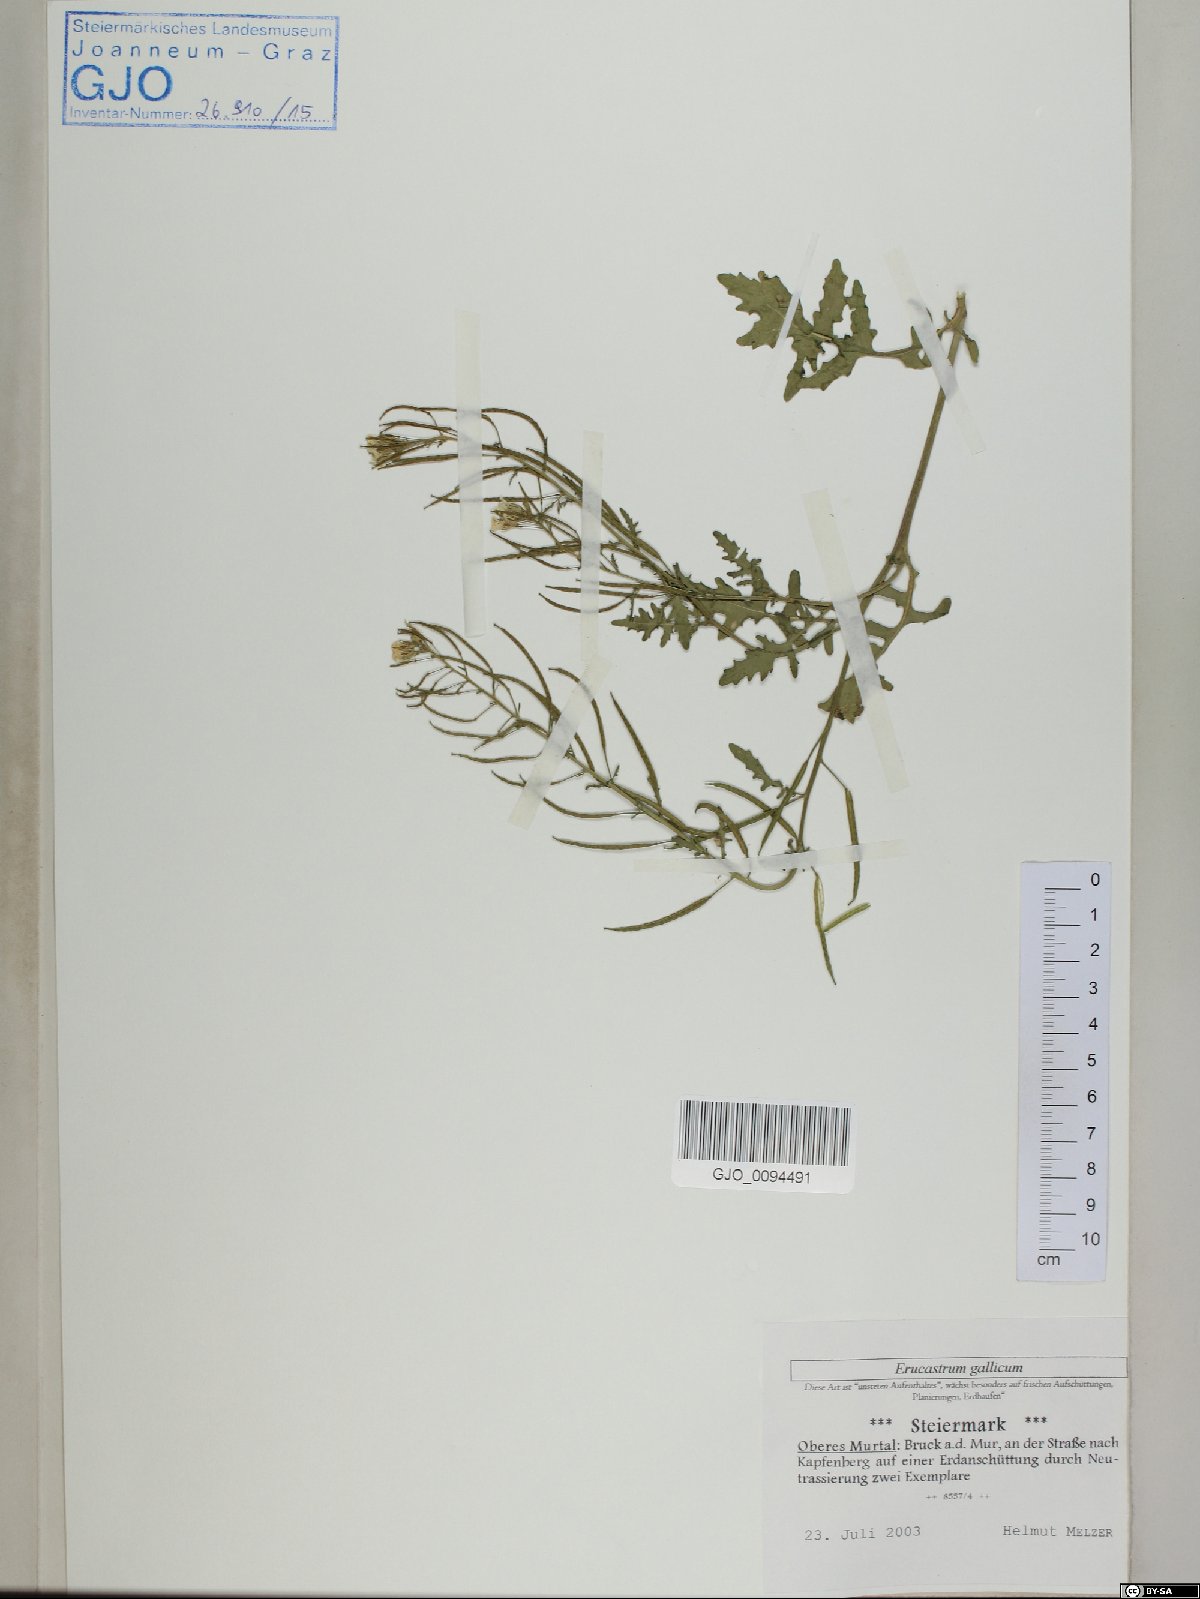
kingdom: Plantae
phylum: Tracheophyta
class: Magnoliopsida
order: Brassicales
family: Brassicaceae
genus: Erucastrum
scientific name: Erucastrum gallicum
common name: Hairy rocket
